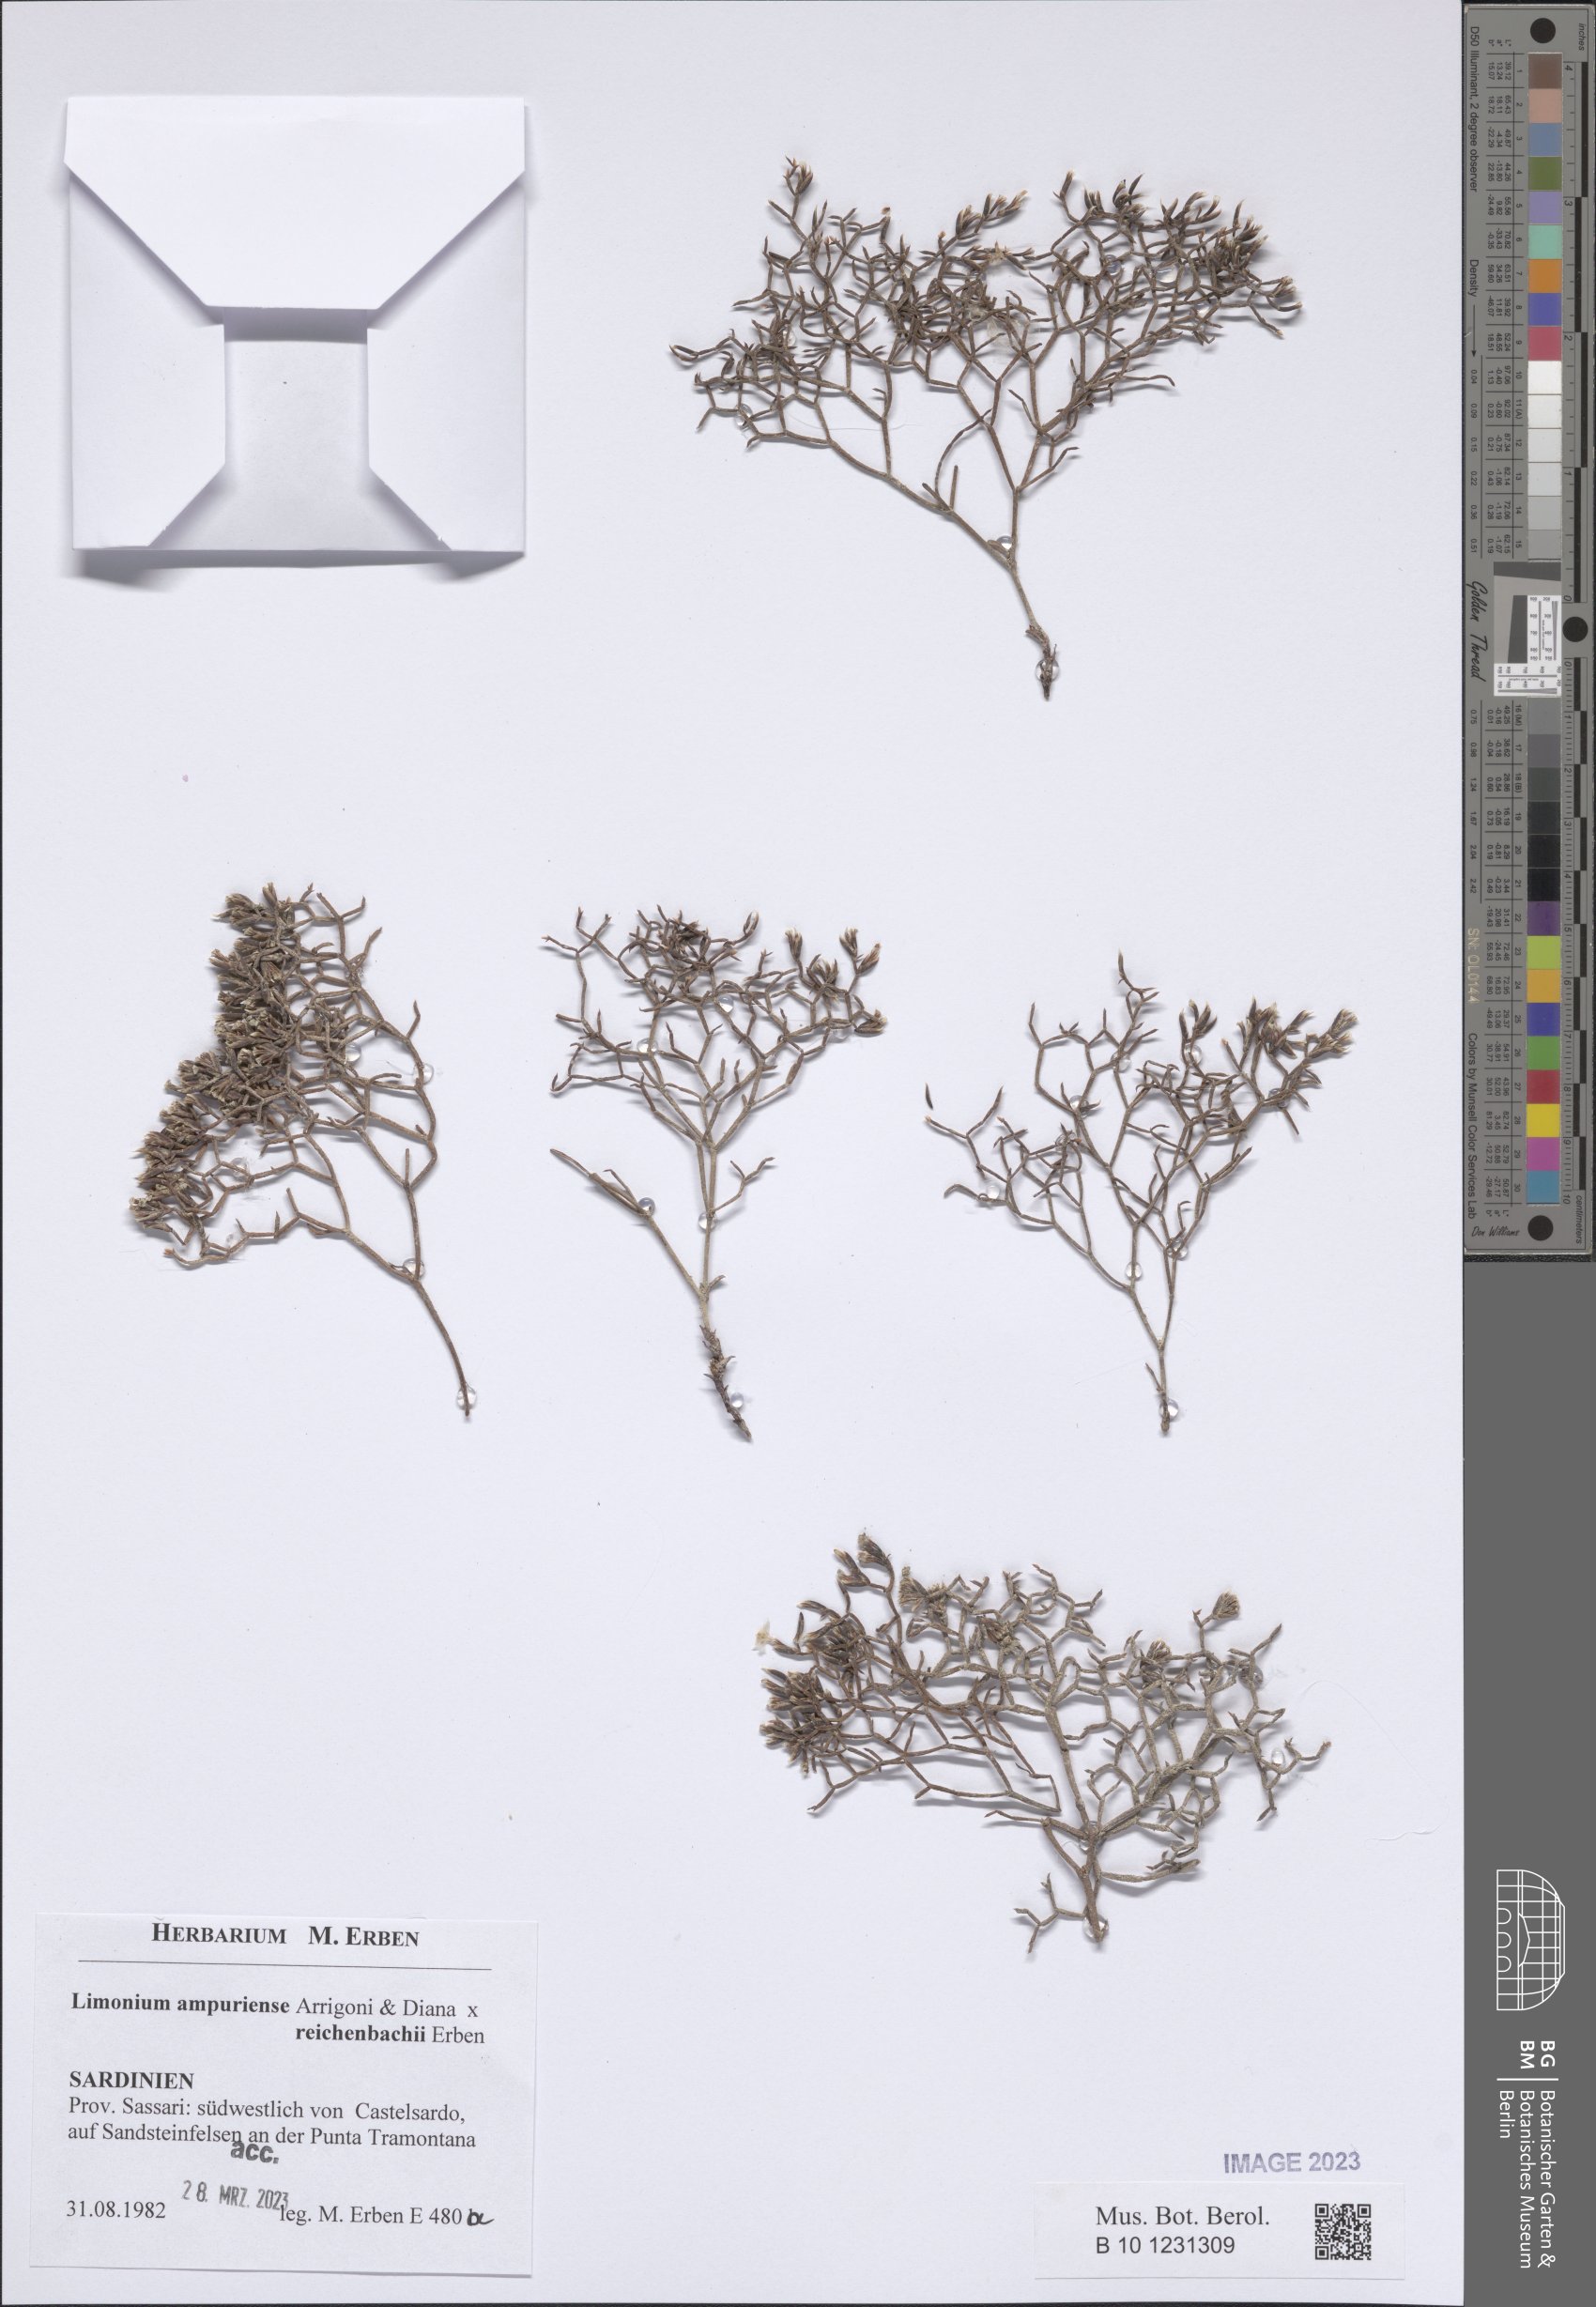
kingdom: Plantae
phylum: Tracheophyta
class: Magnoliopsida
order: Caryophyllales
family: Plumbaginaceae
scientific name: Plumbaginaceae
